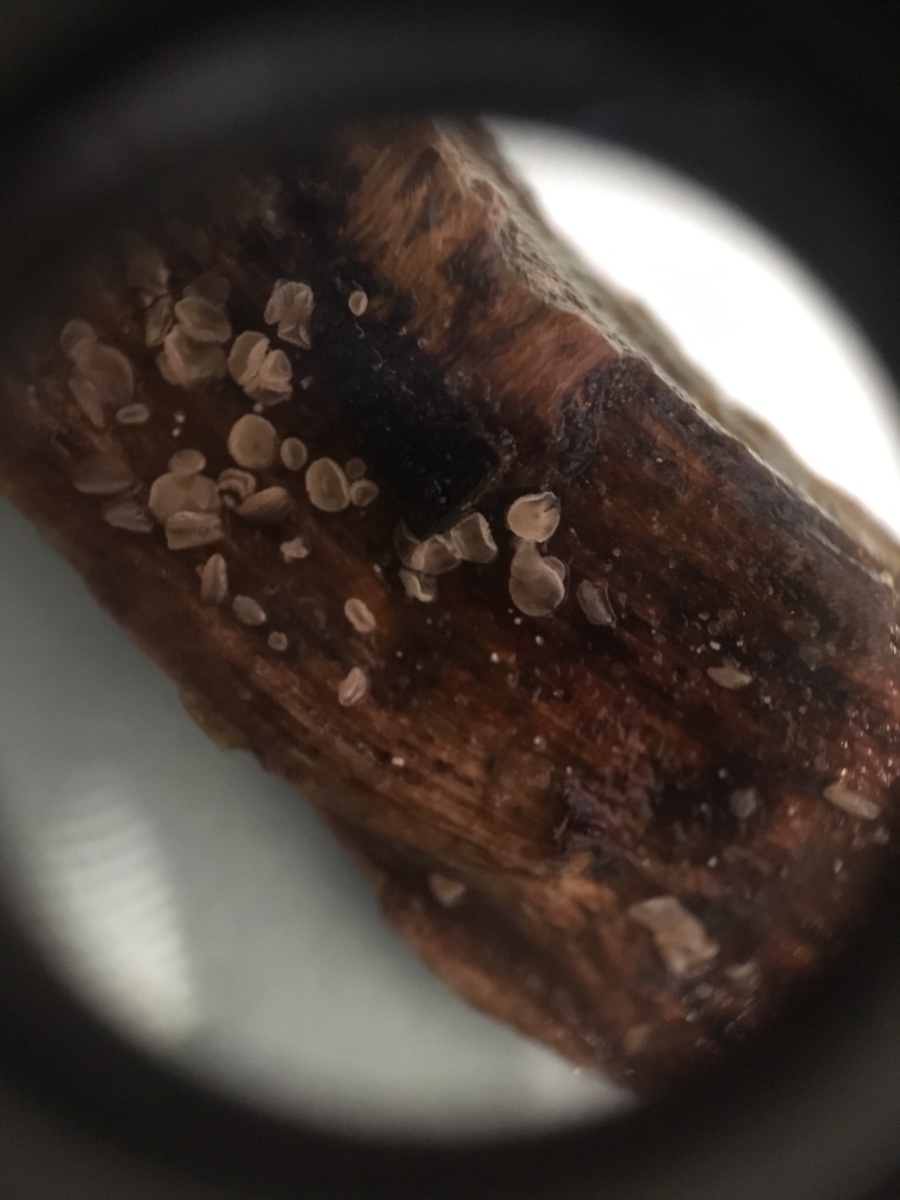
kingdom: Fungi
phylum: Ascomycota
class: Leotiomycetes
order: Helotiales
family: Lachnaceae
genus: Lachnum
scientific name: Lachnum
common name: frynseskive
